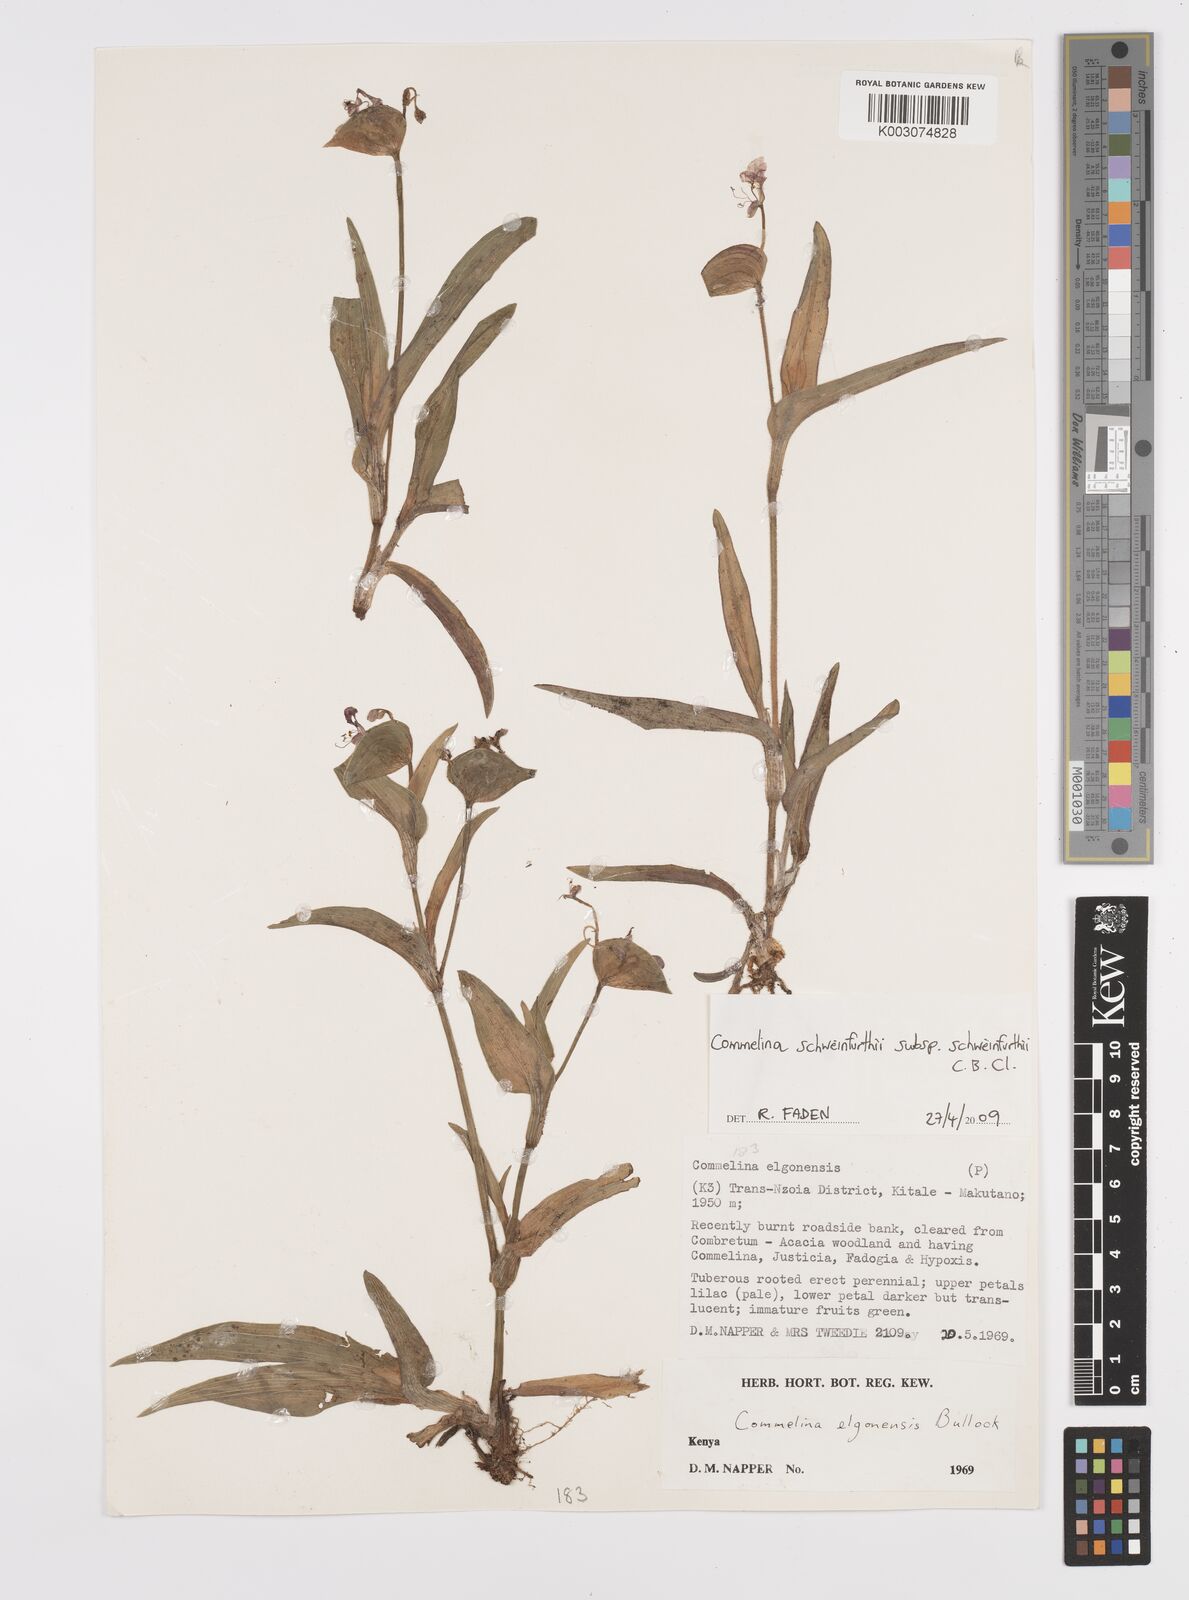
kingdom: Plantae
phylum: Tracheophyta
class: Liliopsida
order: Commelinales
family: Commelinaceae
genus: Commelina
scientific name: Commelina schweinfurthii
